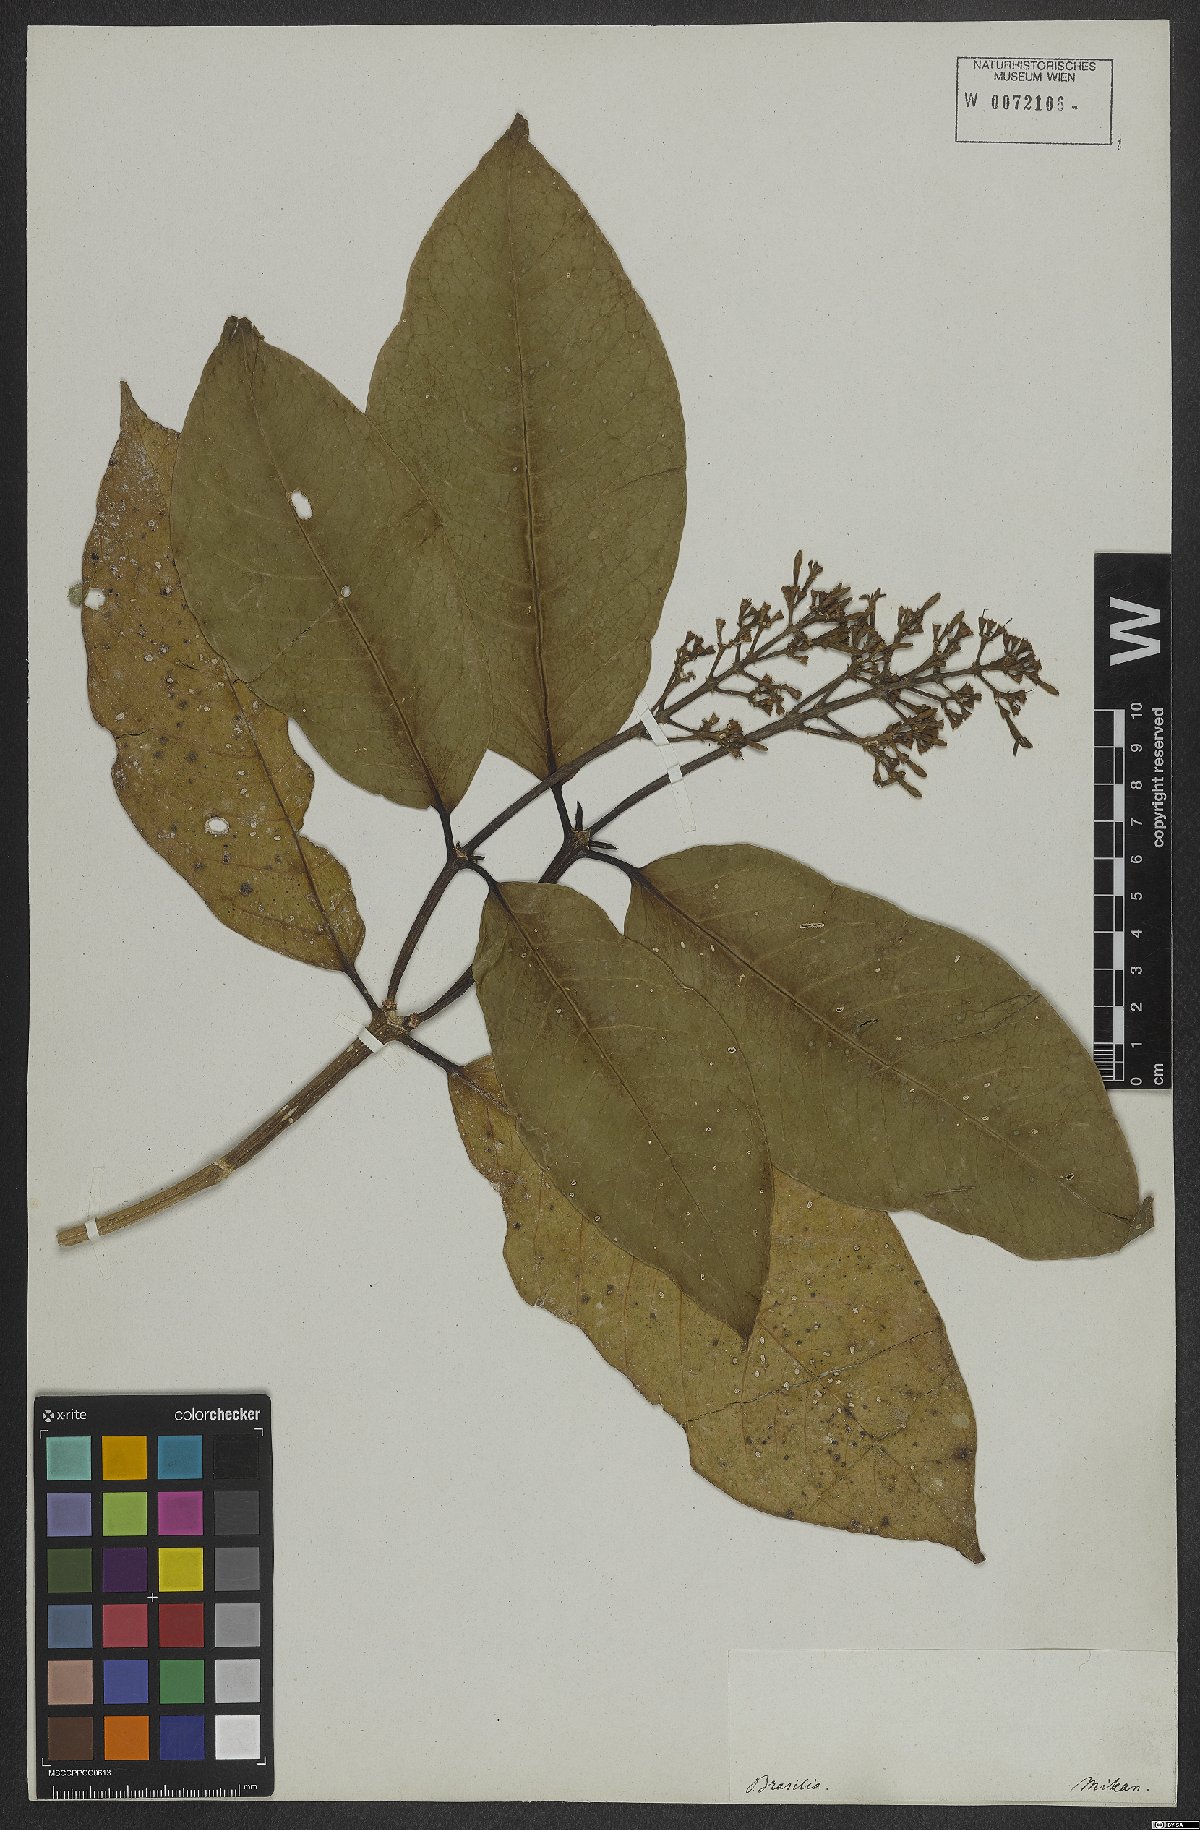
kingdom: Plantae
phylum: Tracheophyta
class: Magnoliopsida
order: Gentianales
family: Rubiaceae
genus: Coussarea
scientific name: Coussarea nemoralis
